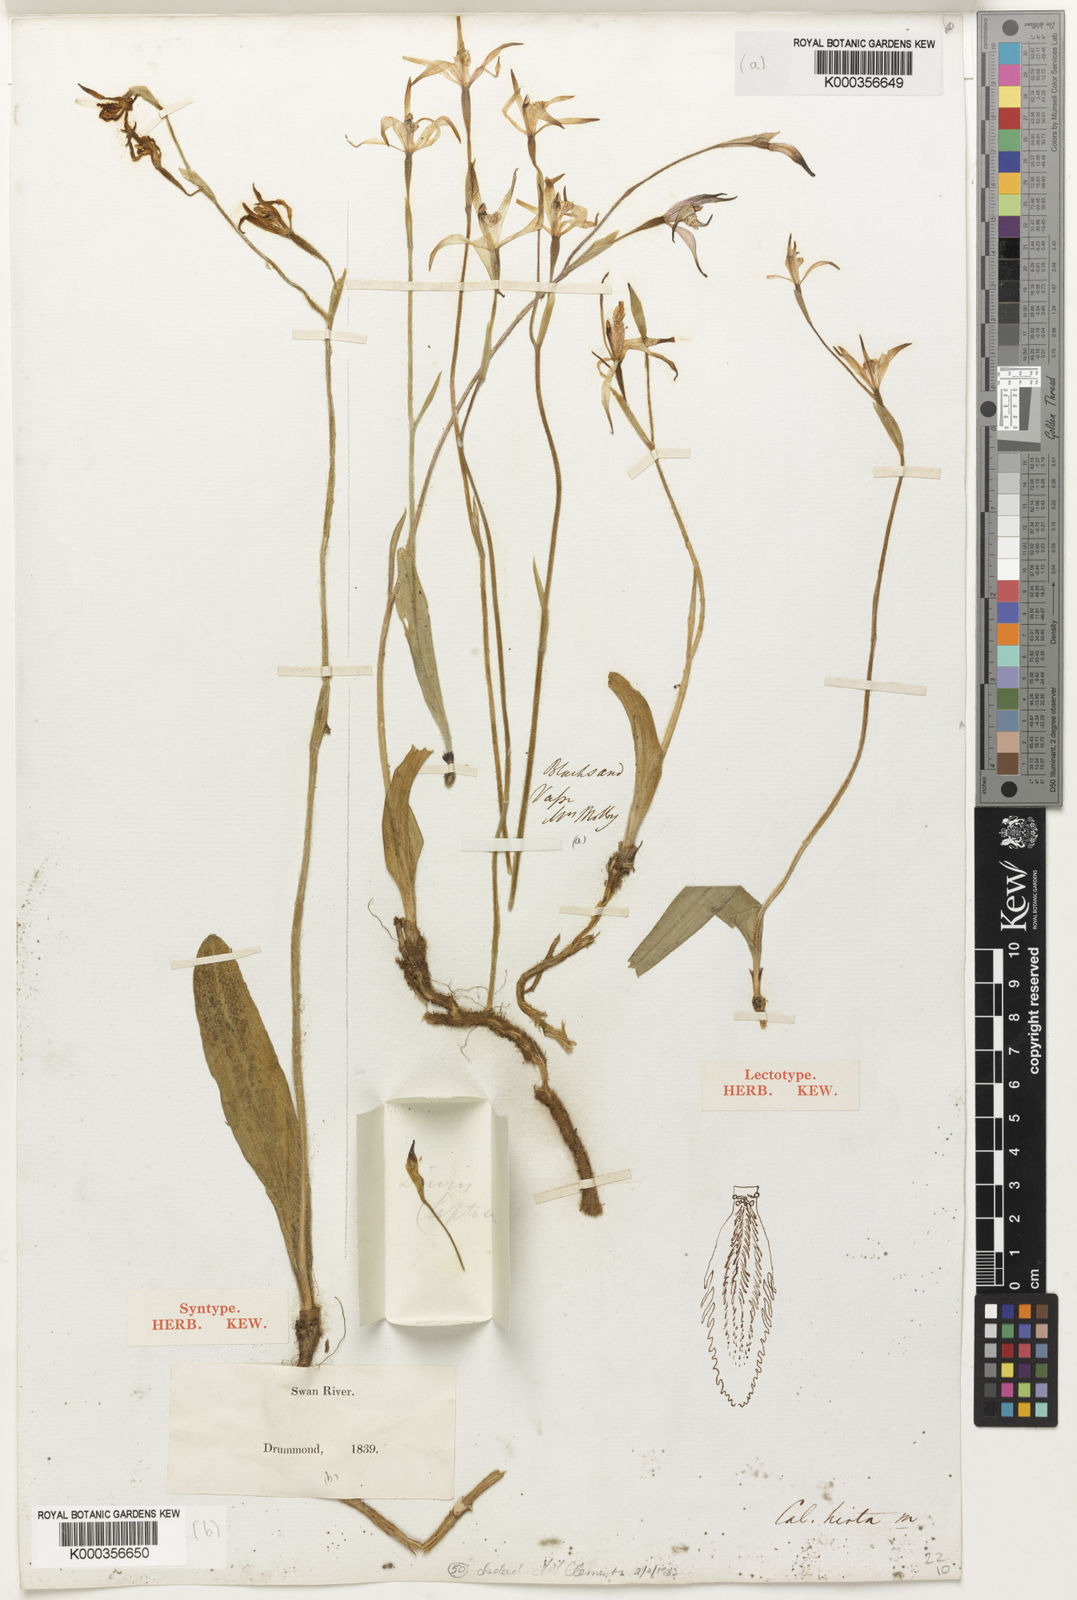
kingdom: Plantae
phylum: Tracheophyta
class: Liliopsida
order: Asparagales
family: Orchidaceae
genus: Caladenia
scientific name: Caladenia hirta
